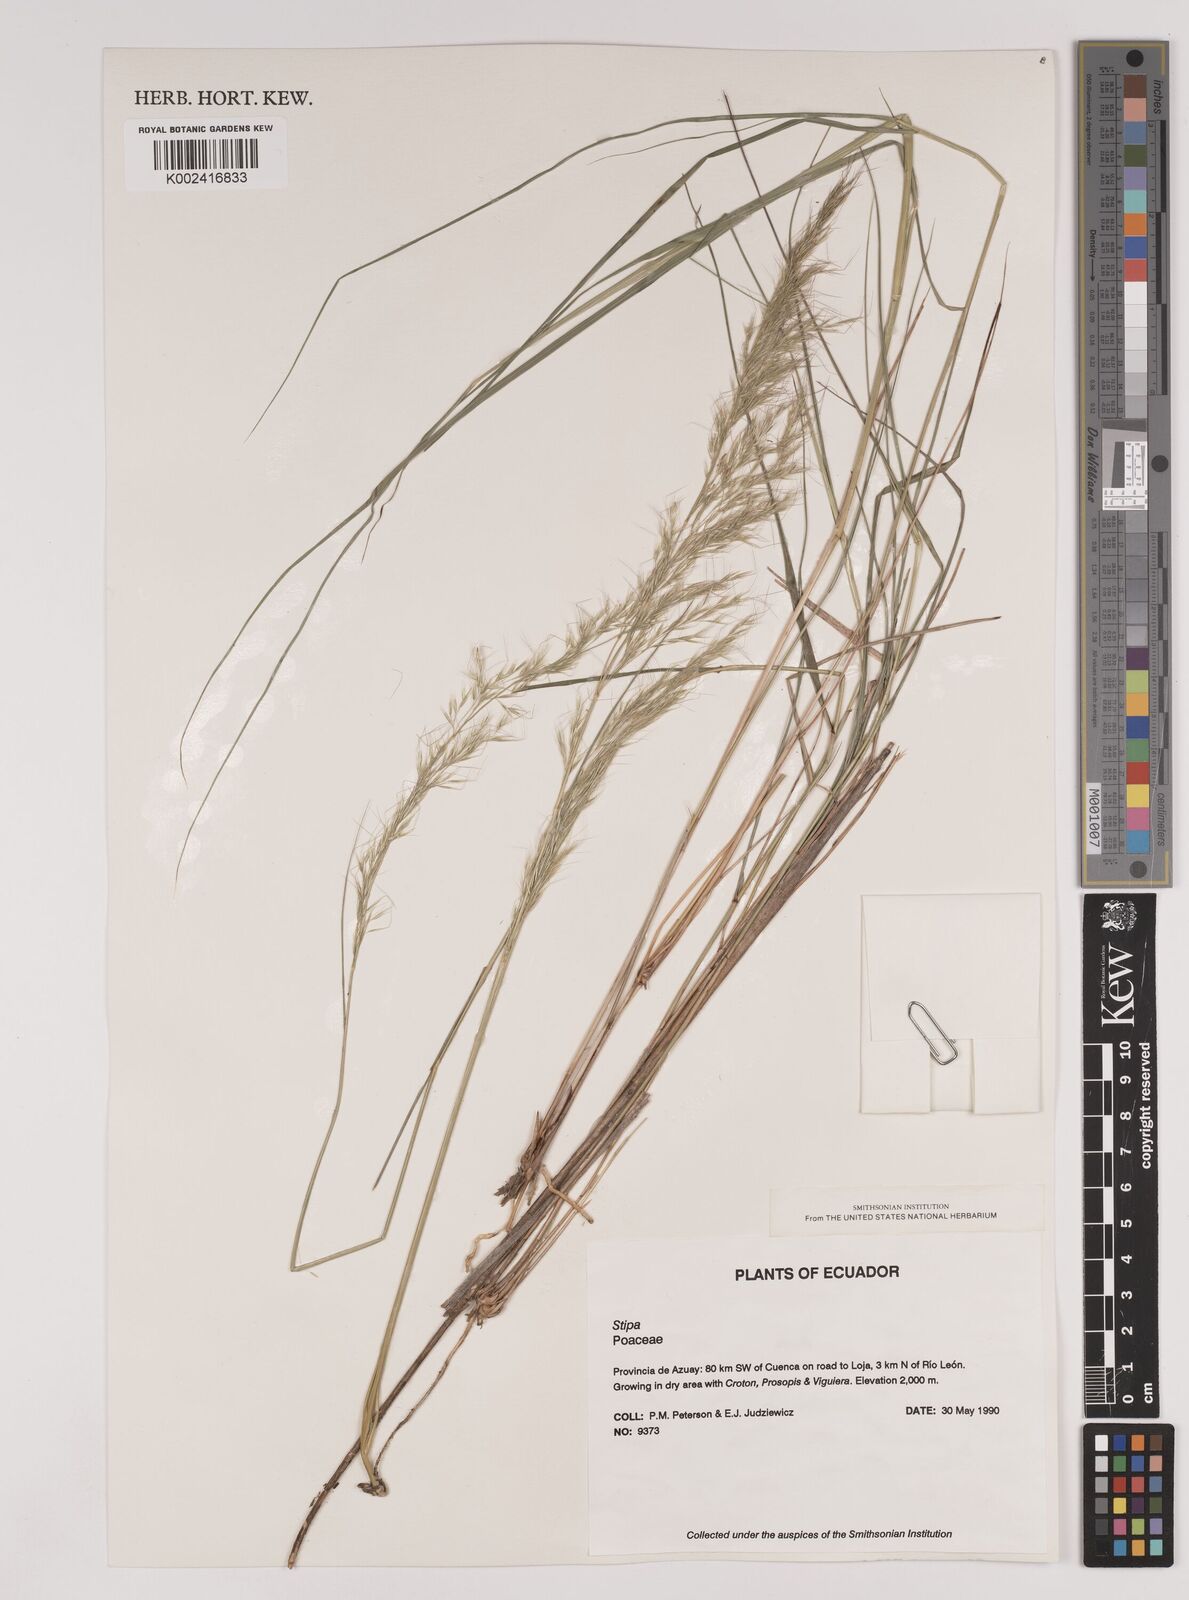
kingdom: Plantae
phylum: Tracheophyta
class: Liliopsida
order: Poales
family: Poaceae
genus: Stipa
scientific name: Stipa
